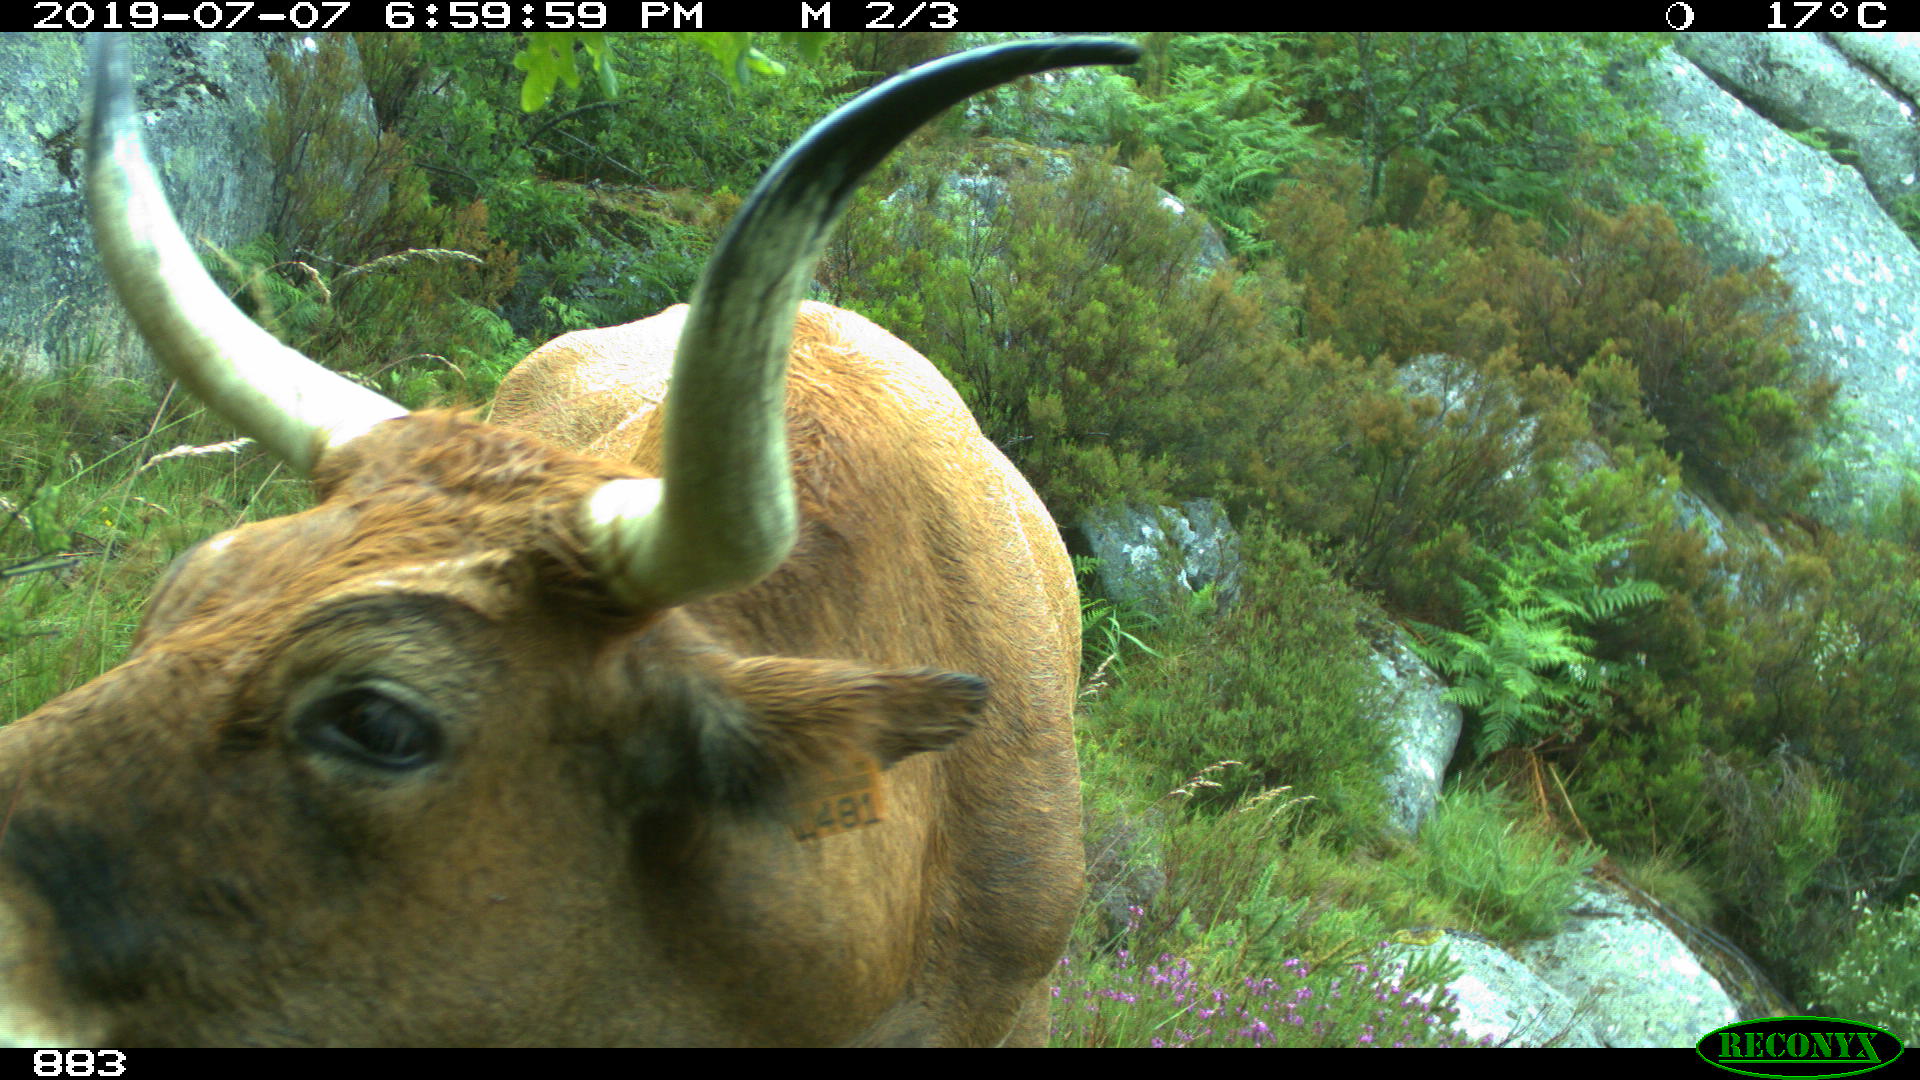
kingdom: Animalia
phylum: Chordata
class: Mammalia
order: Artiodactyla
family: Bovidae
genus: Bos
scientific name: Bos taurus
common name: Domesticated cattle
